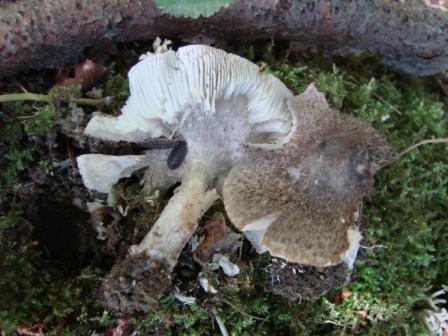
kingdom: Fungi
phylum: Basidiomycota
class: Agaricomycetes
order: Agaricales
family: Tricholomataceae
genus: Tricholoma
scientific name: Tricholoma scalpturatum
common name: gulplettet ridderhat
